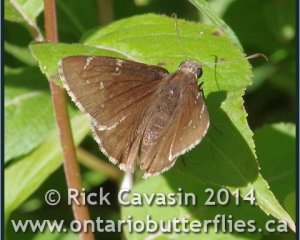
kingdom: Animalia
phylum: Arthropoda
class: Insecta
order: Lepidoptera
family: Hesperiidae
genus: Autochton
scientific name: Autochton
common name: Northern Cloudywing
